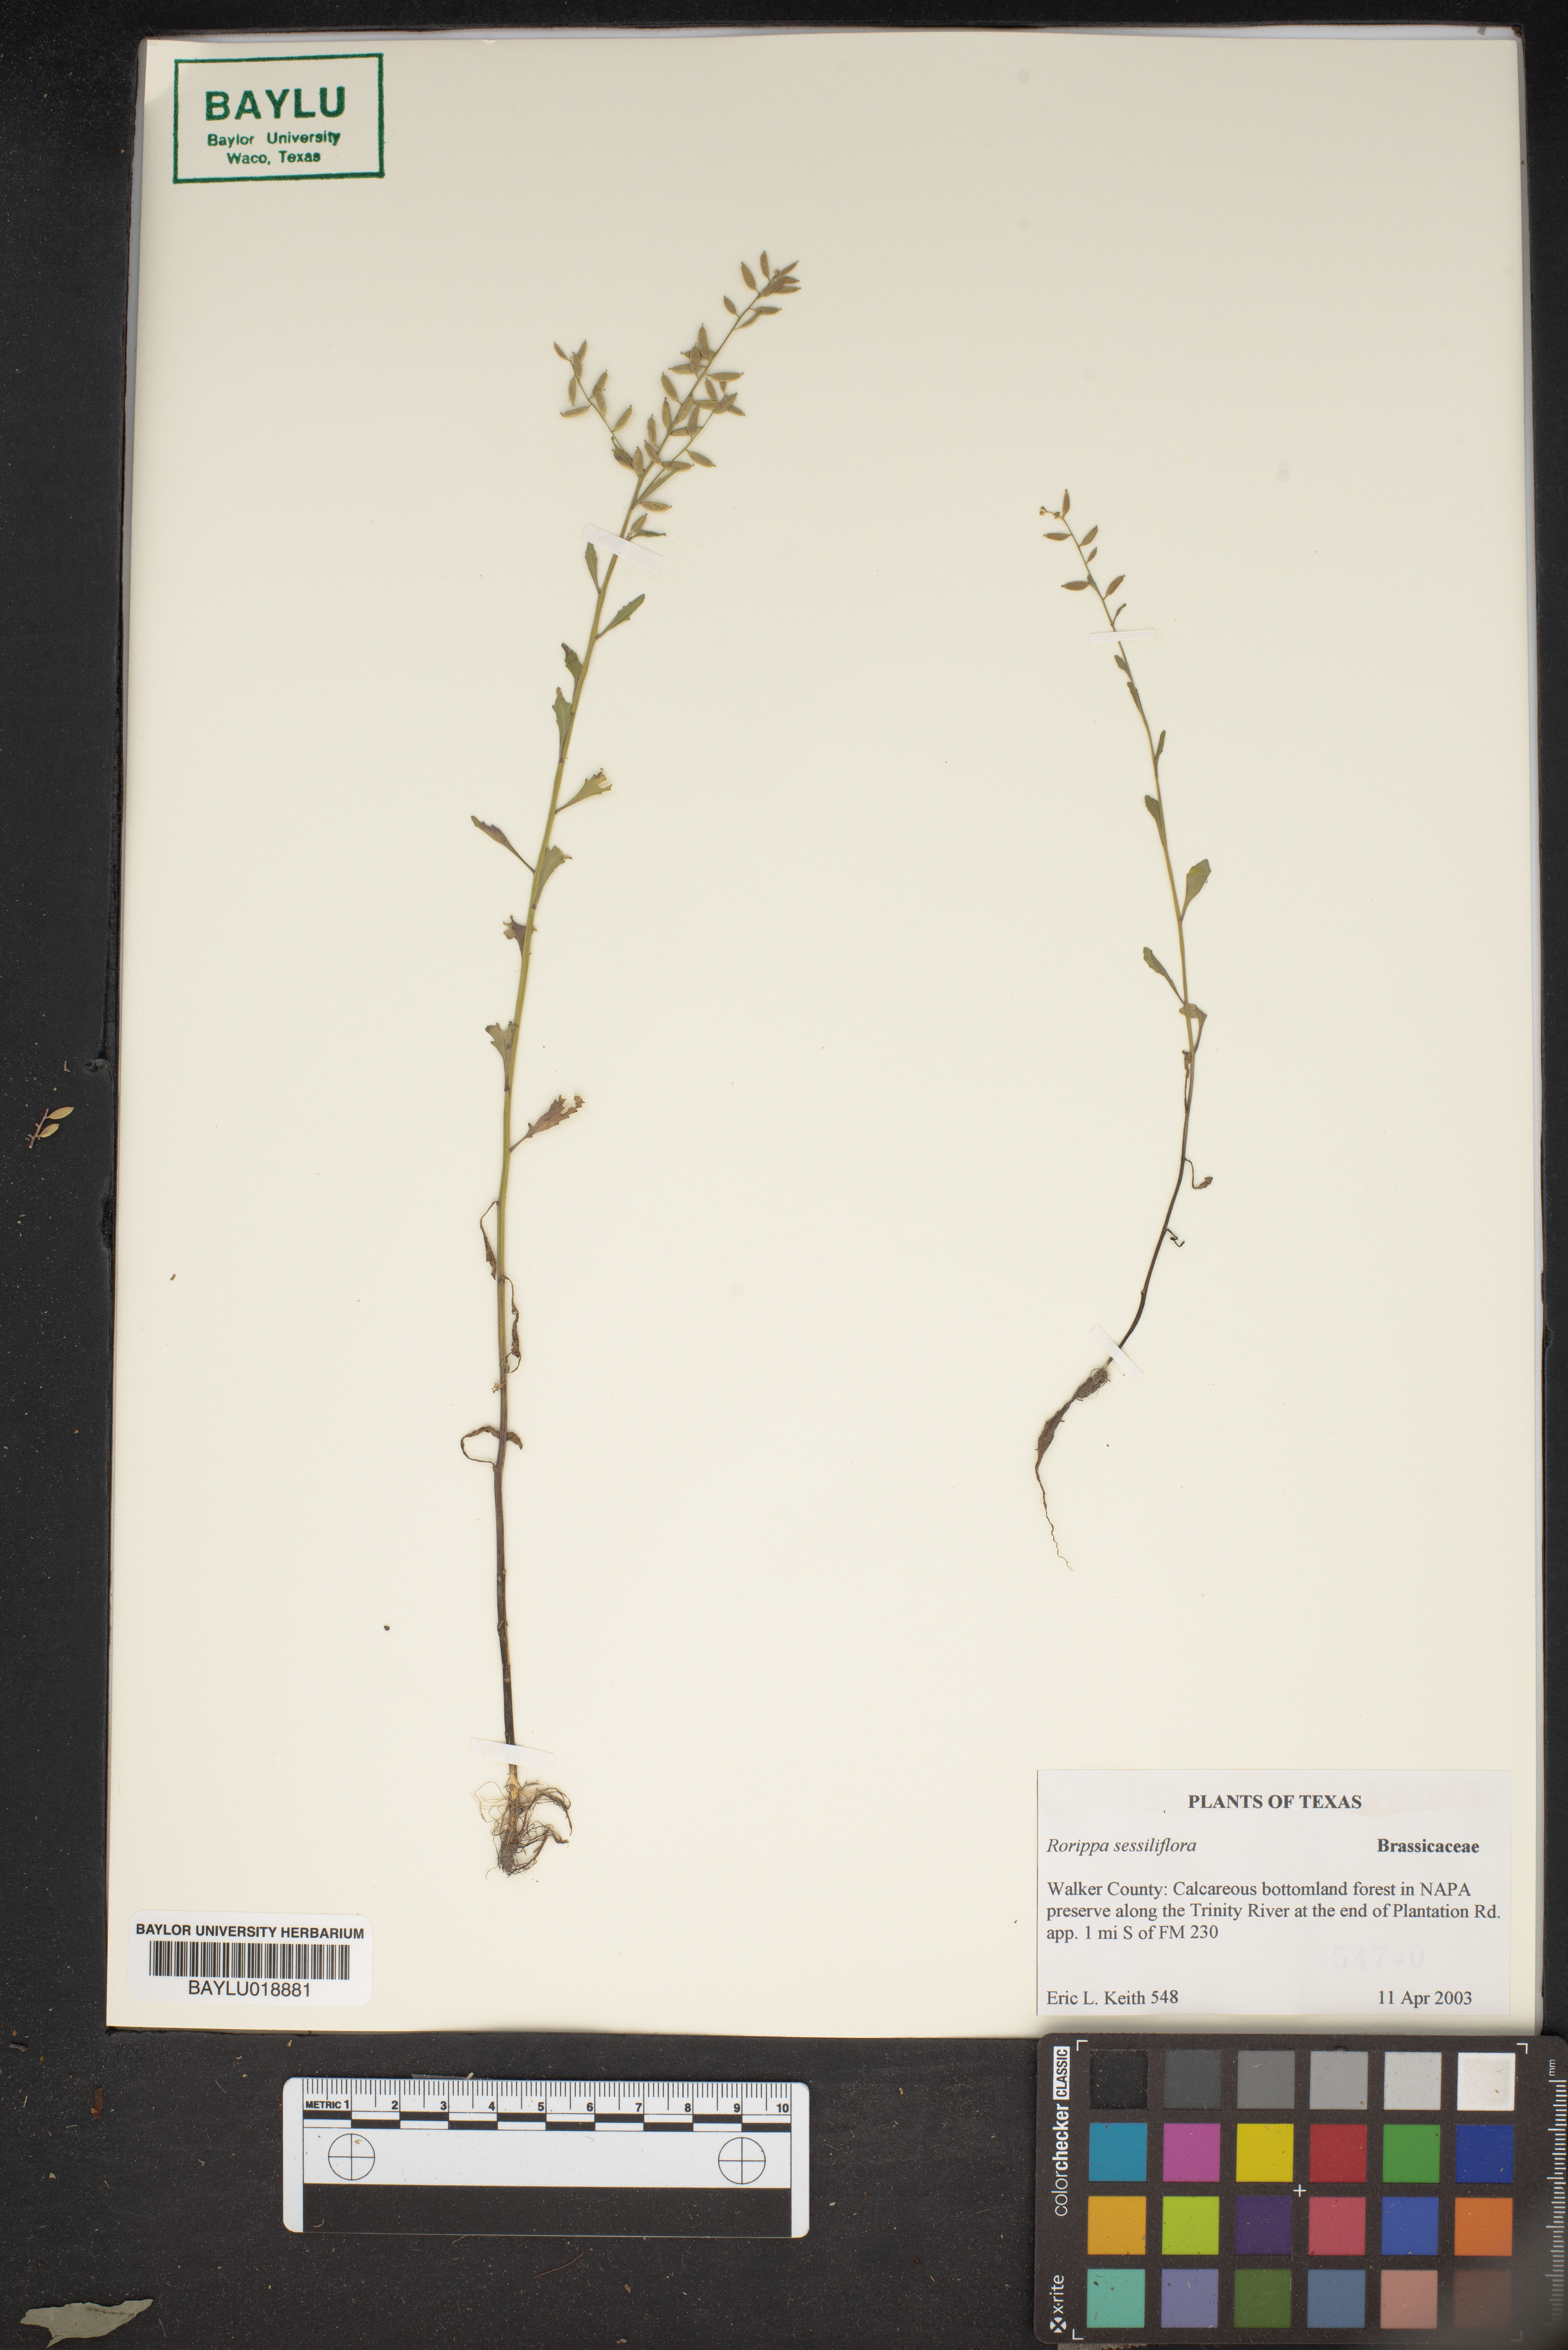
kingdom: Plantae
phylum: Tracheophyta
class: Magnoliopsida
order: Brassicales
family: Brassicaceae
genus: Rorippa
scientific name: Rorippa sessiliflora
